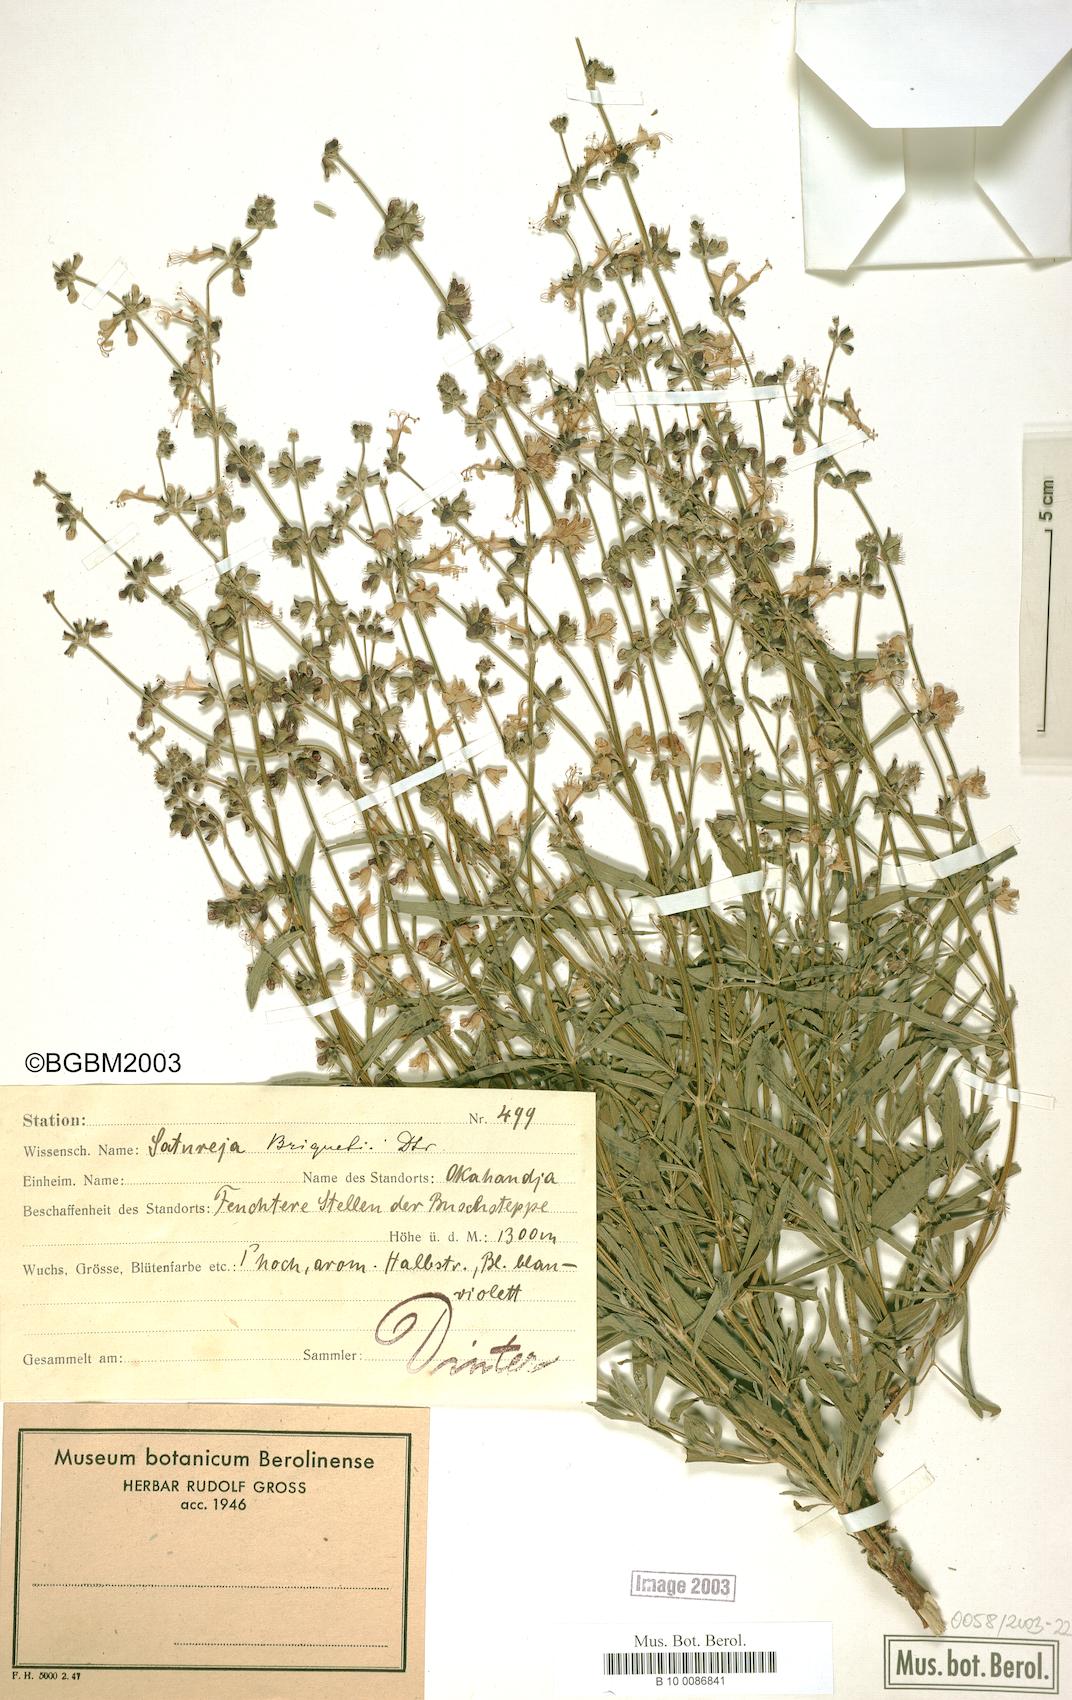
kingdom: Plantae
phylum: Tracheophyta
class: Magnoliopsida
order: Lamiales
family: Lamiaceae
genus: Micromeria
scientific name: Micromeria debilis
